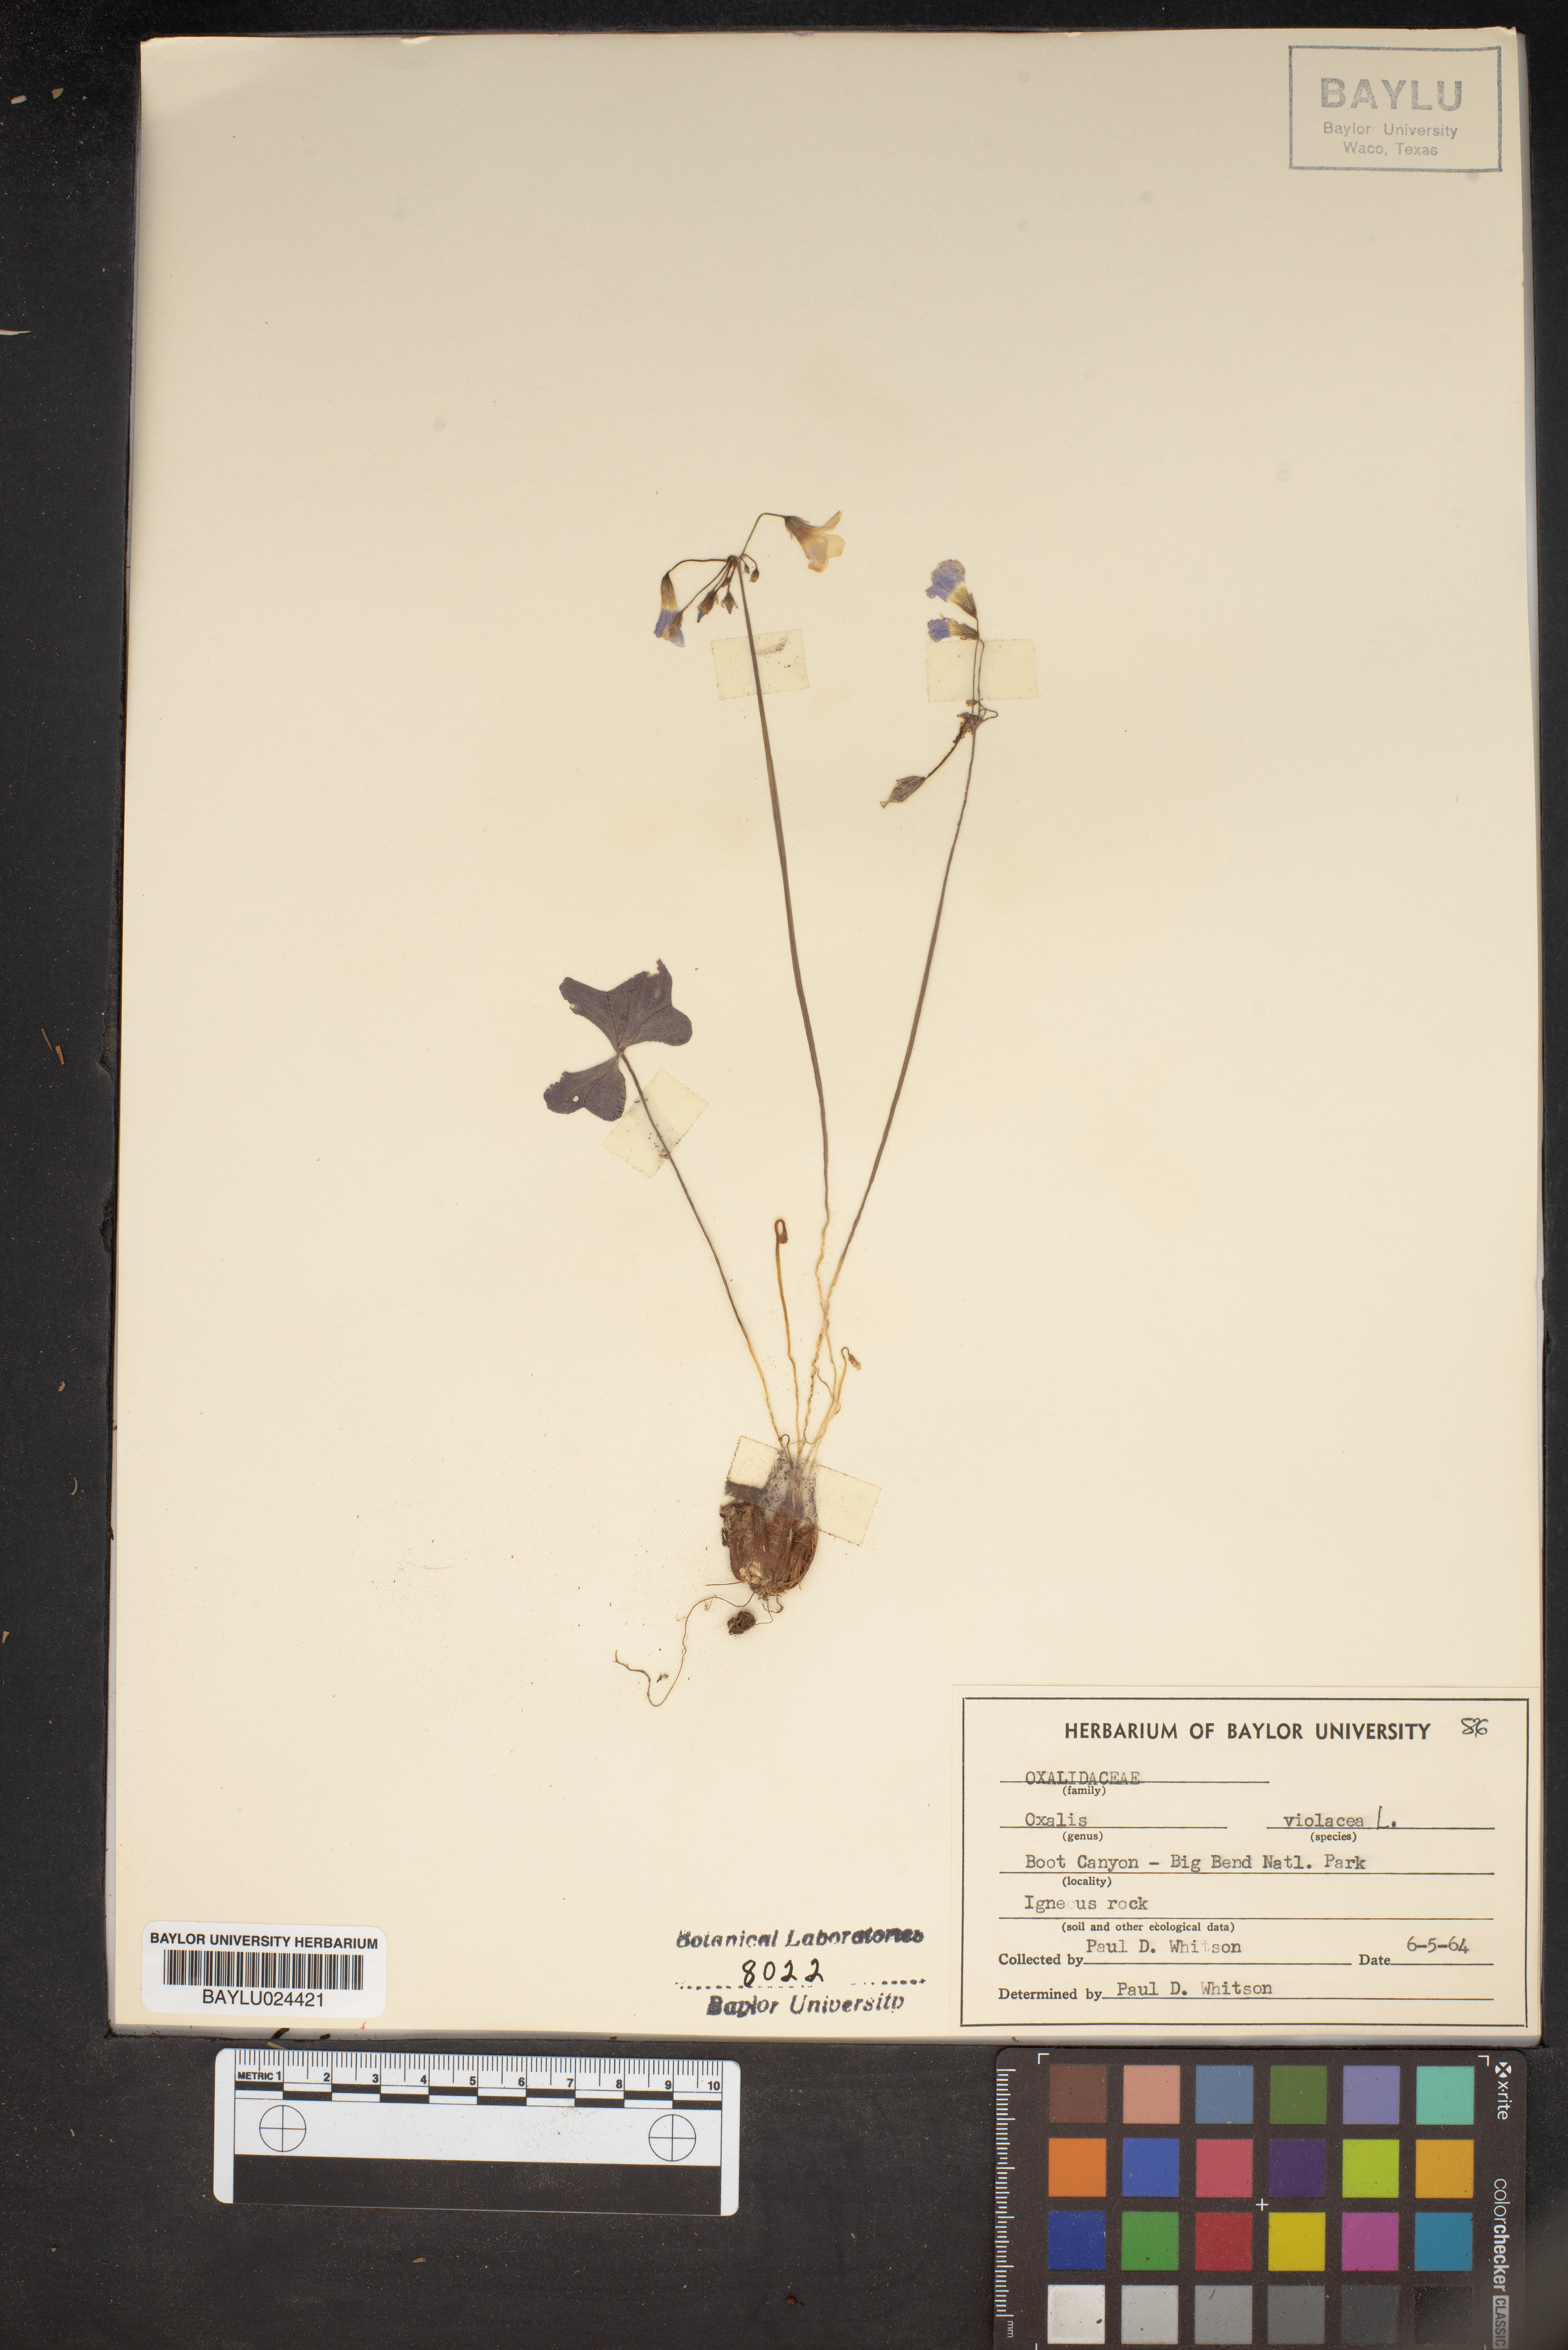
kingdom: Plantae
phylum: Tracheophyta
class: Magnoliopsida
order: Oxalidales
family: Oxalidaceae
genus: Oxalis
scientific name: Oxalis violacea
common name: Violet wood-sorrel
